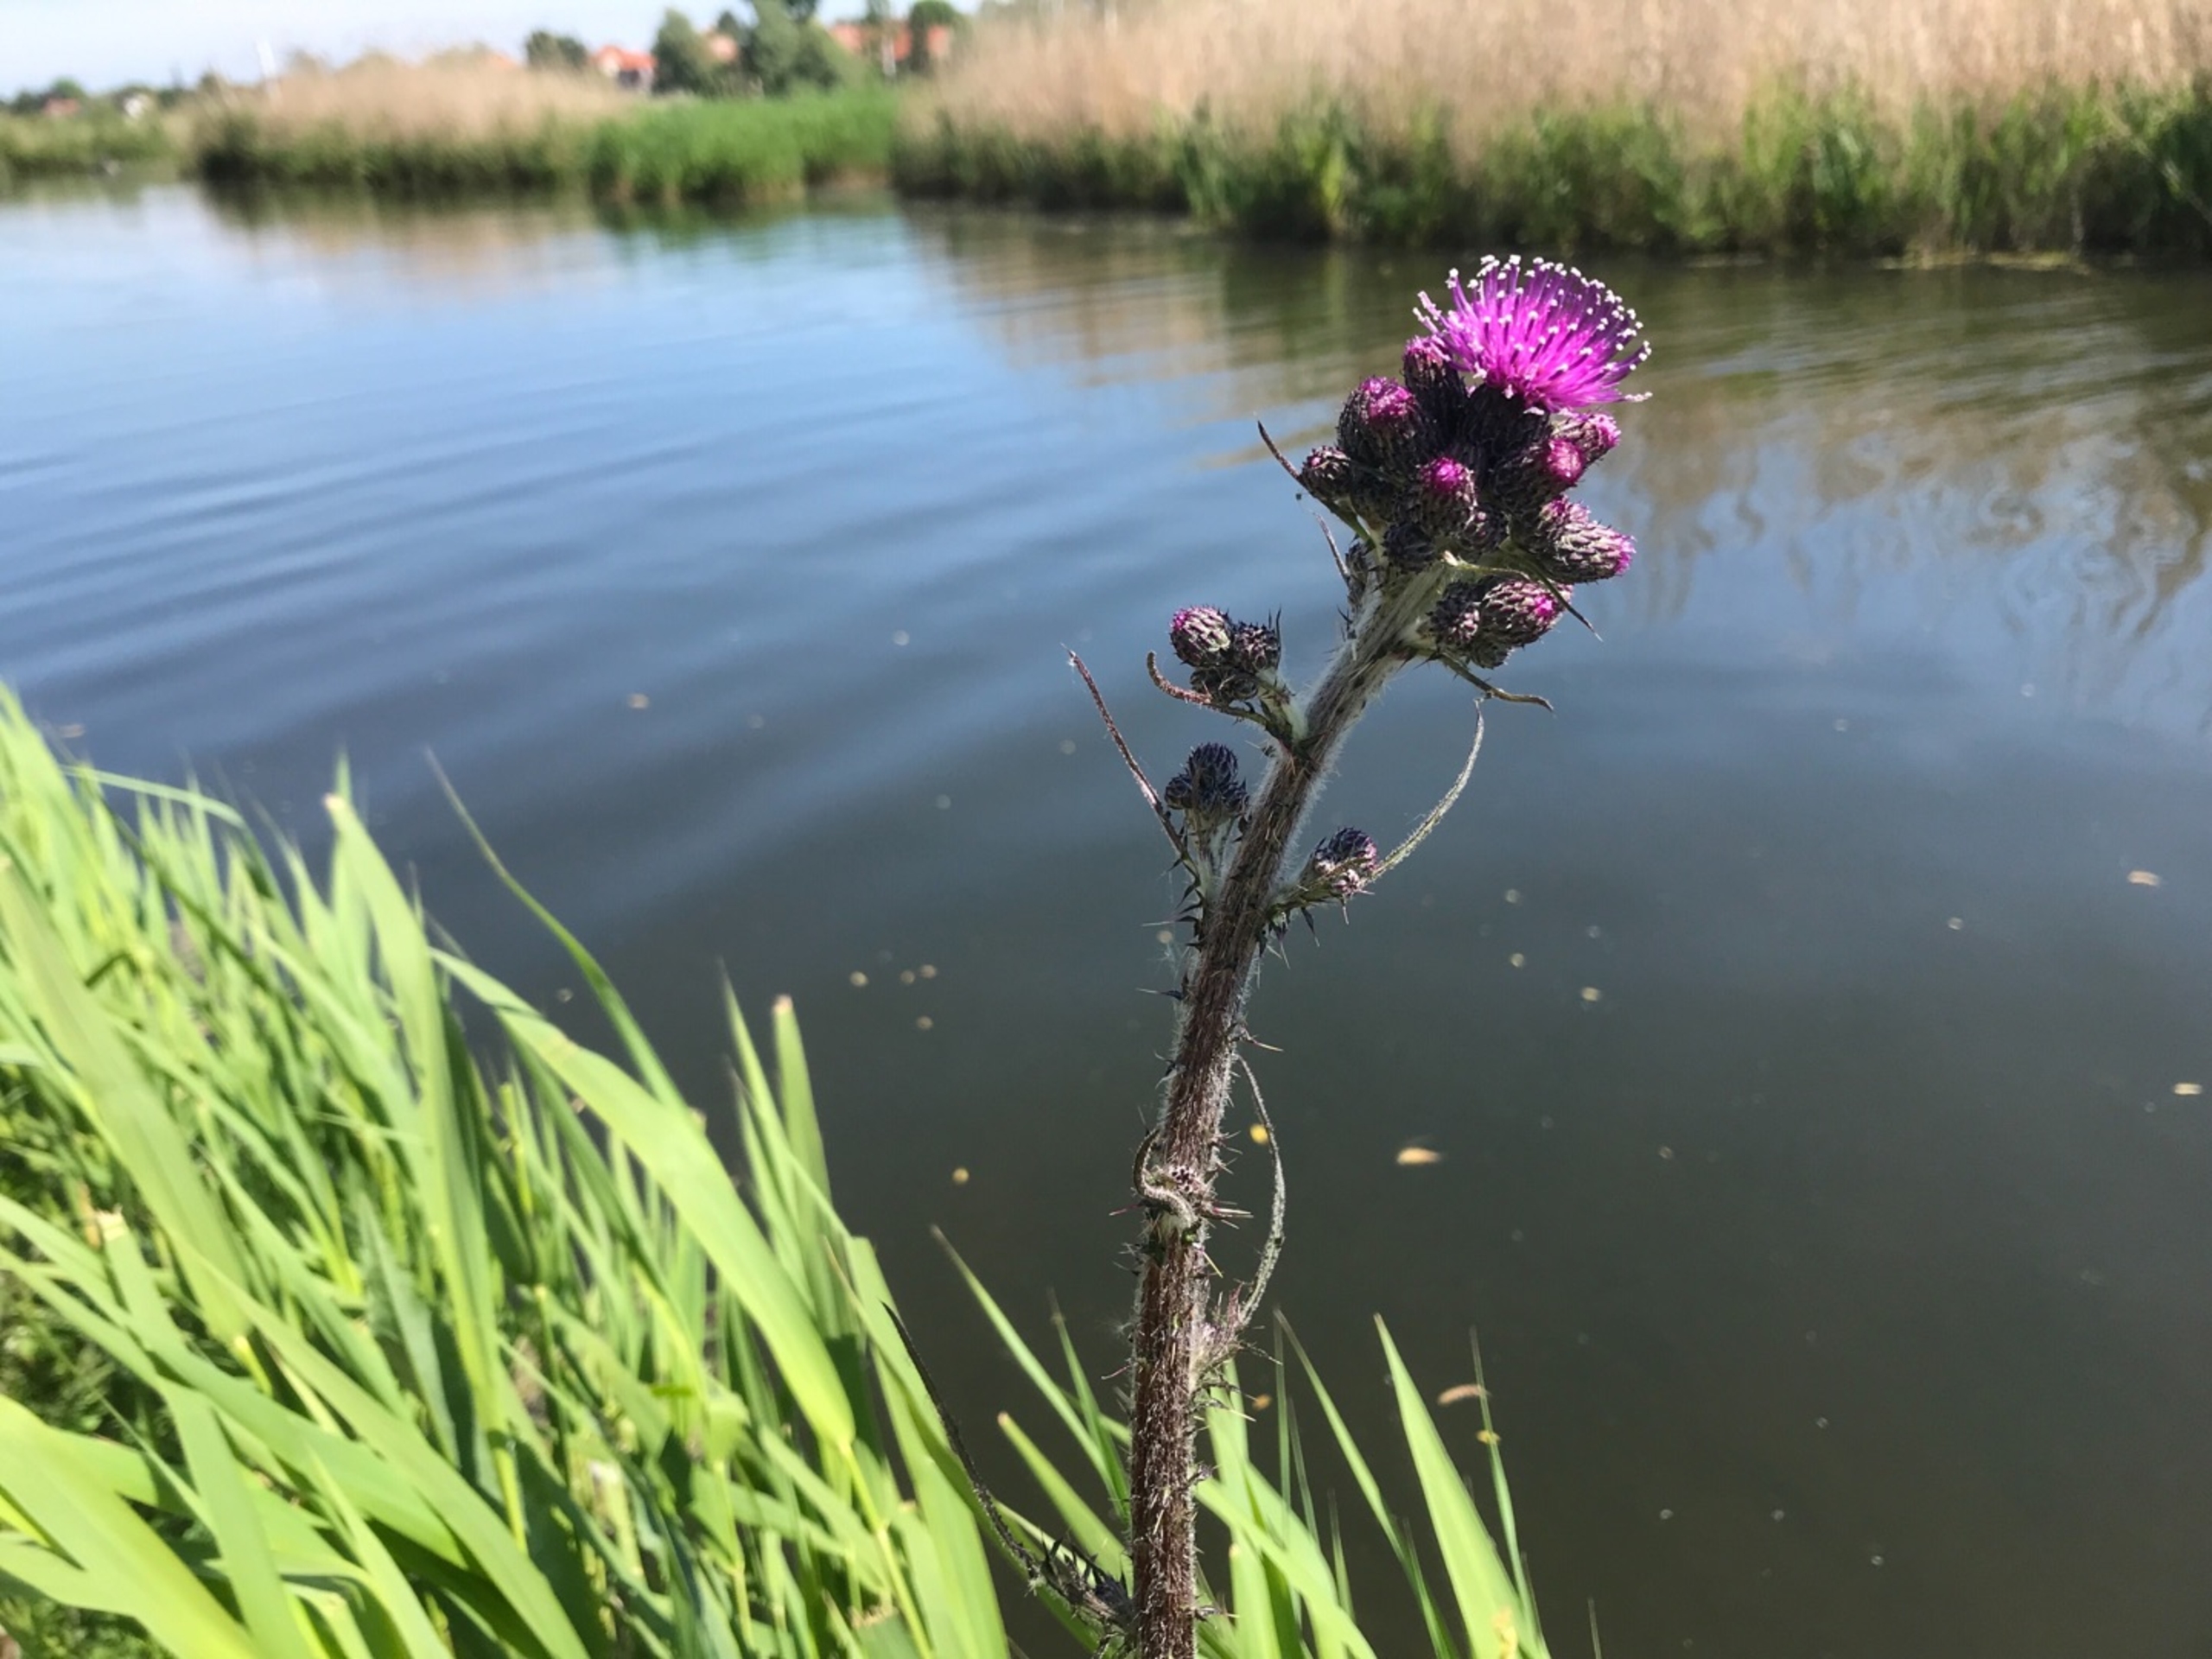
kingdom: Plantae
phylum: Tracheophyta
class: Magnoliopsida
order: Asterales
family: Asteraceae
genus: Cirsium
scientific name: Cirsium palustre
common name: Kær-tidsel
